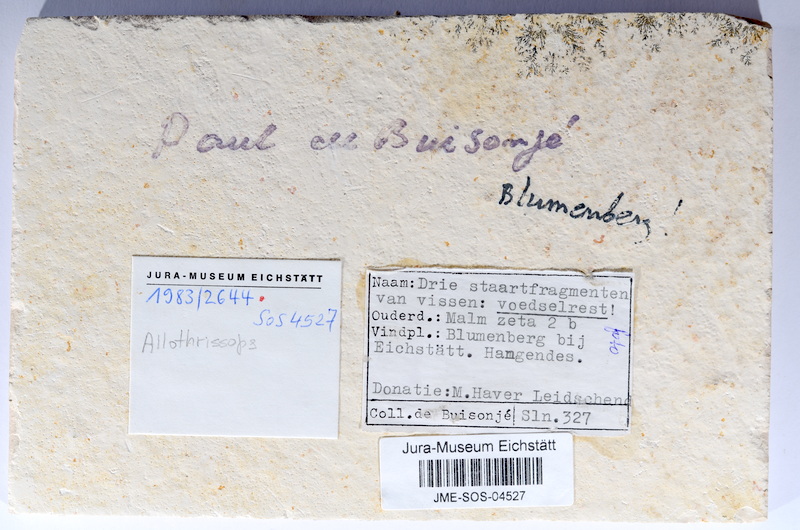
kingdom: Animalia
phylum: Chordata
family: Allothrissopidae
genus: Allothrissops
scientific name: Allothrissops
